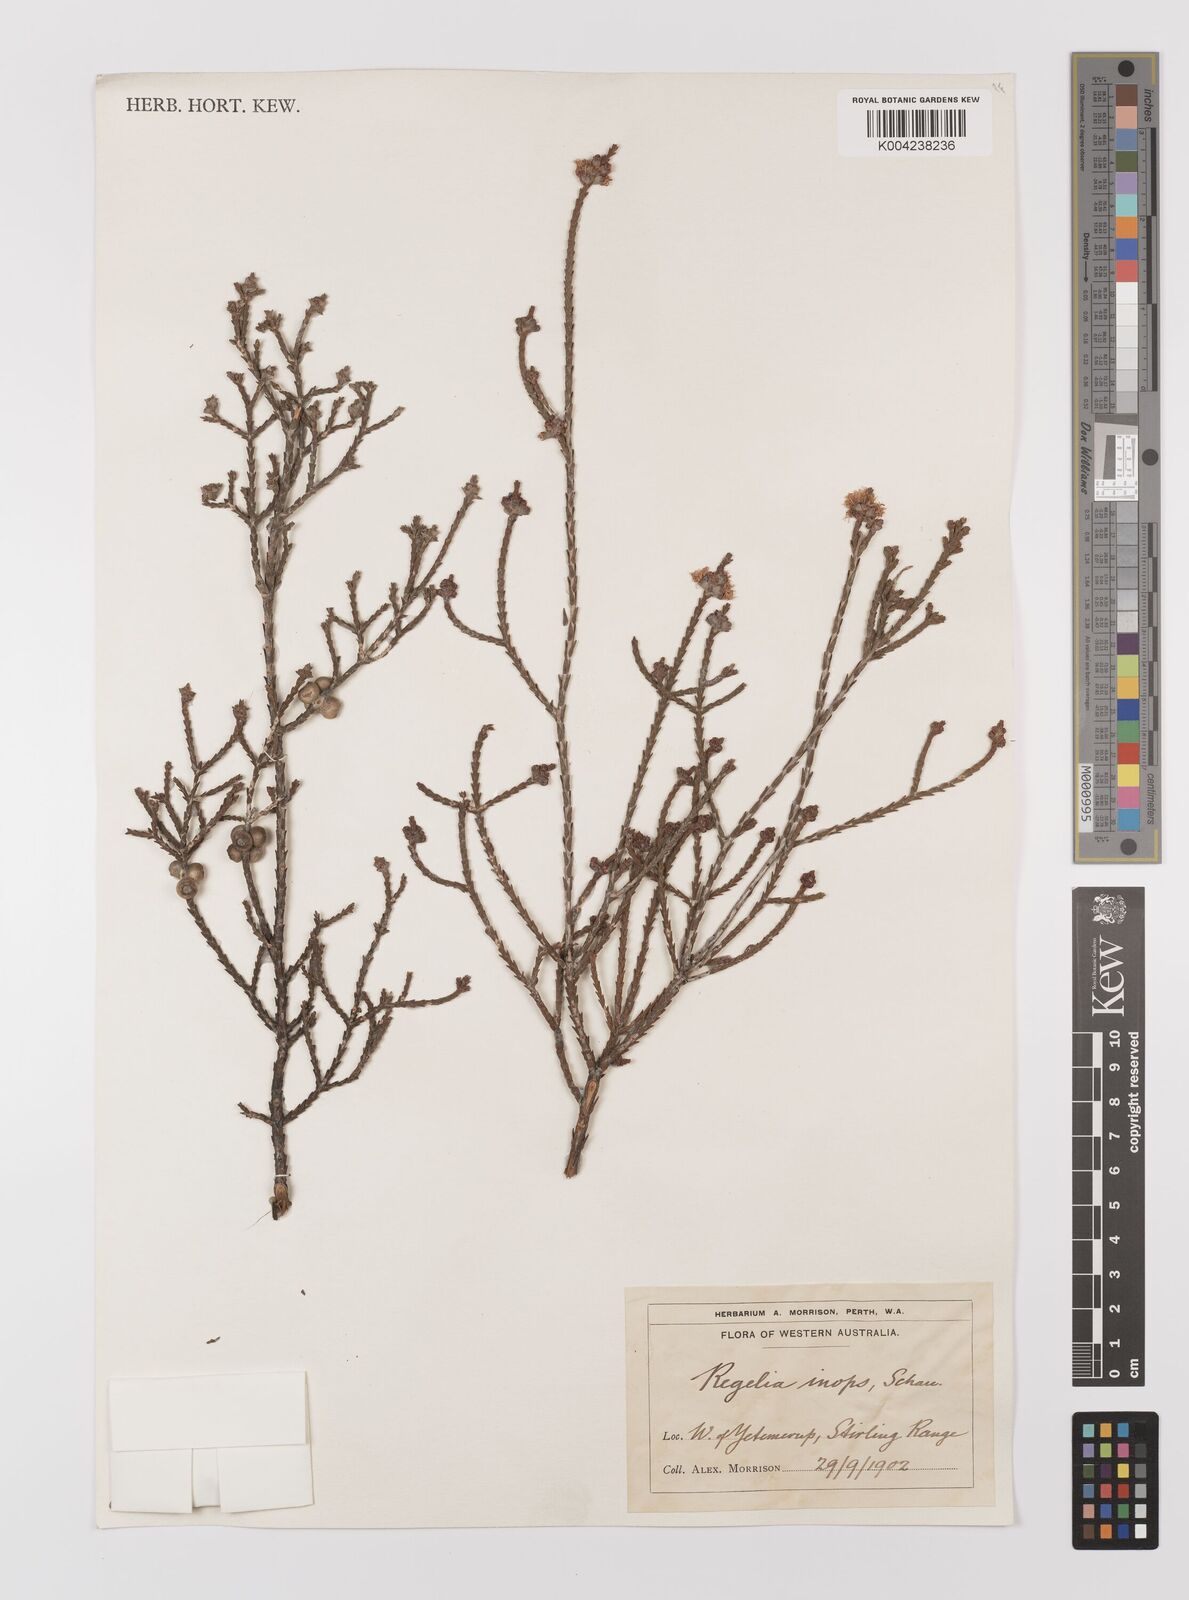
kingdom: Plantae
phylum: Tracheophyta
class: Magnoliopsida
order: Myrtales
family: Myrtaceae
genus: Melaleuca
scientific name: Melaleuca inops
